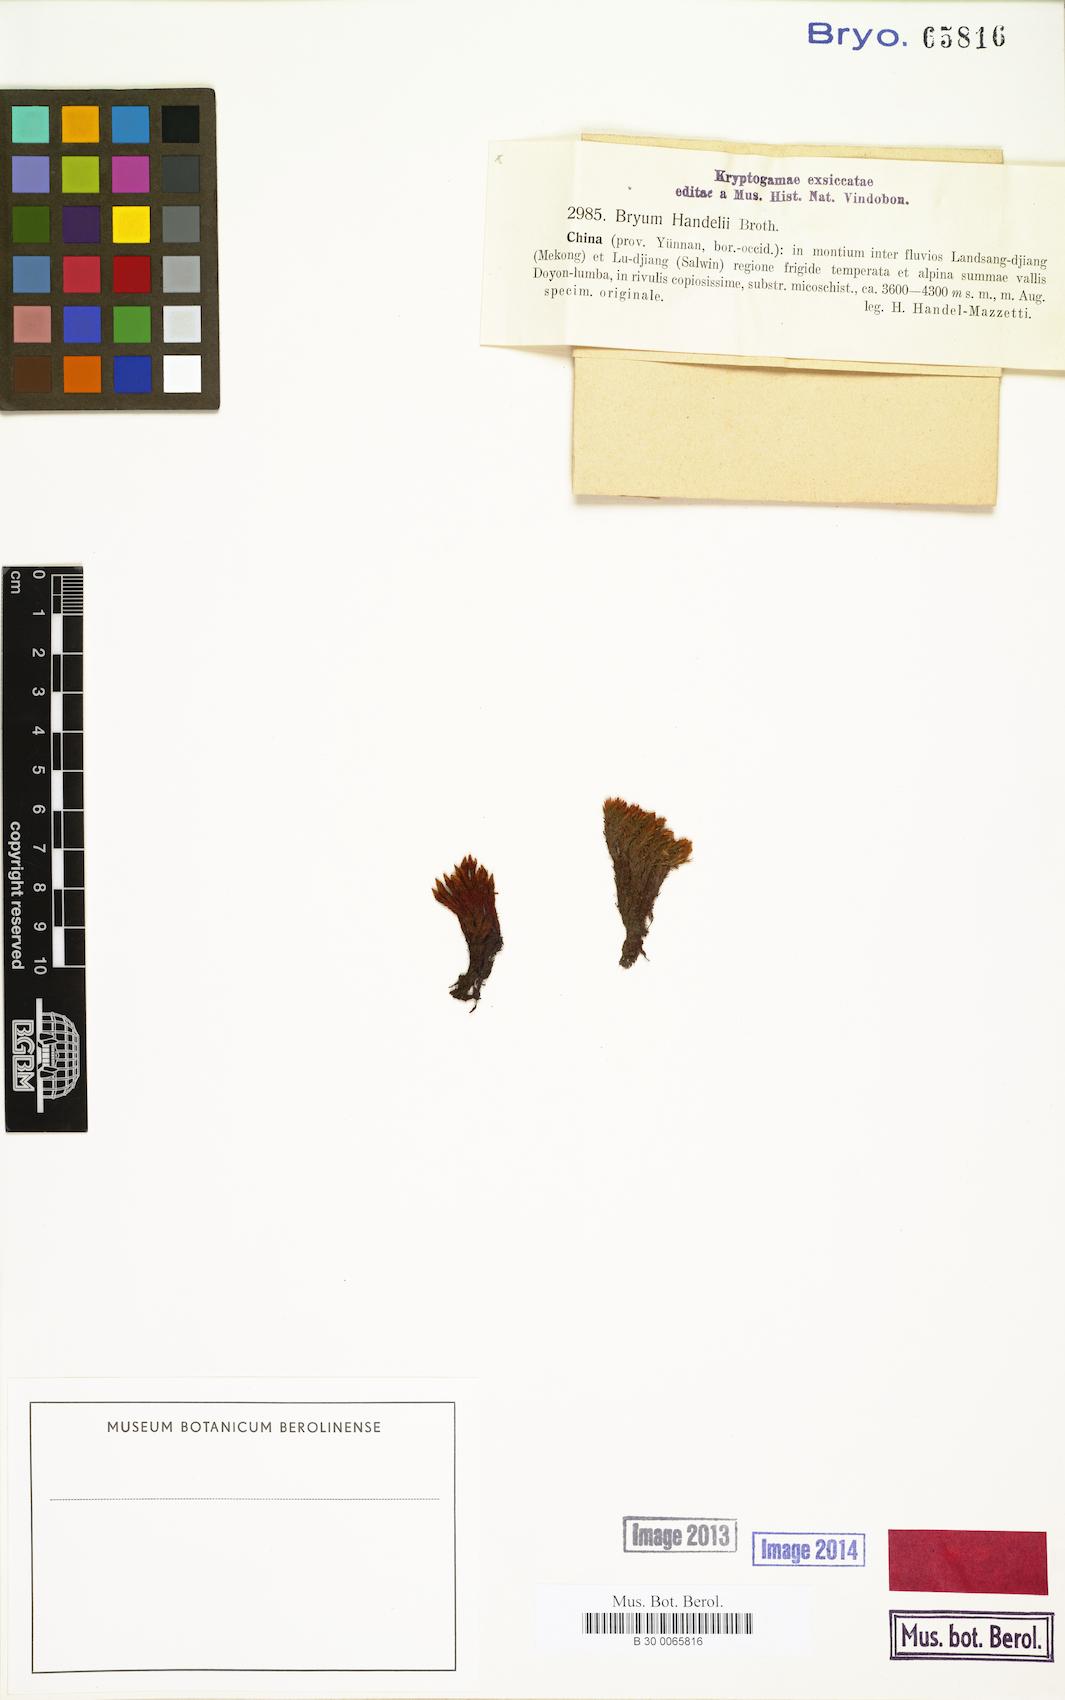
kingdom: Plantae
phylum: Bryophyta
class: Bryopsida
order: Bryales
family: Bryaceae
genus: Ochiobryum
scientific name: Ochiobryum handelii
